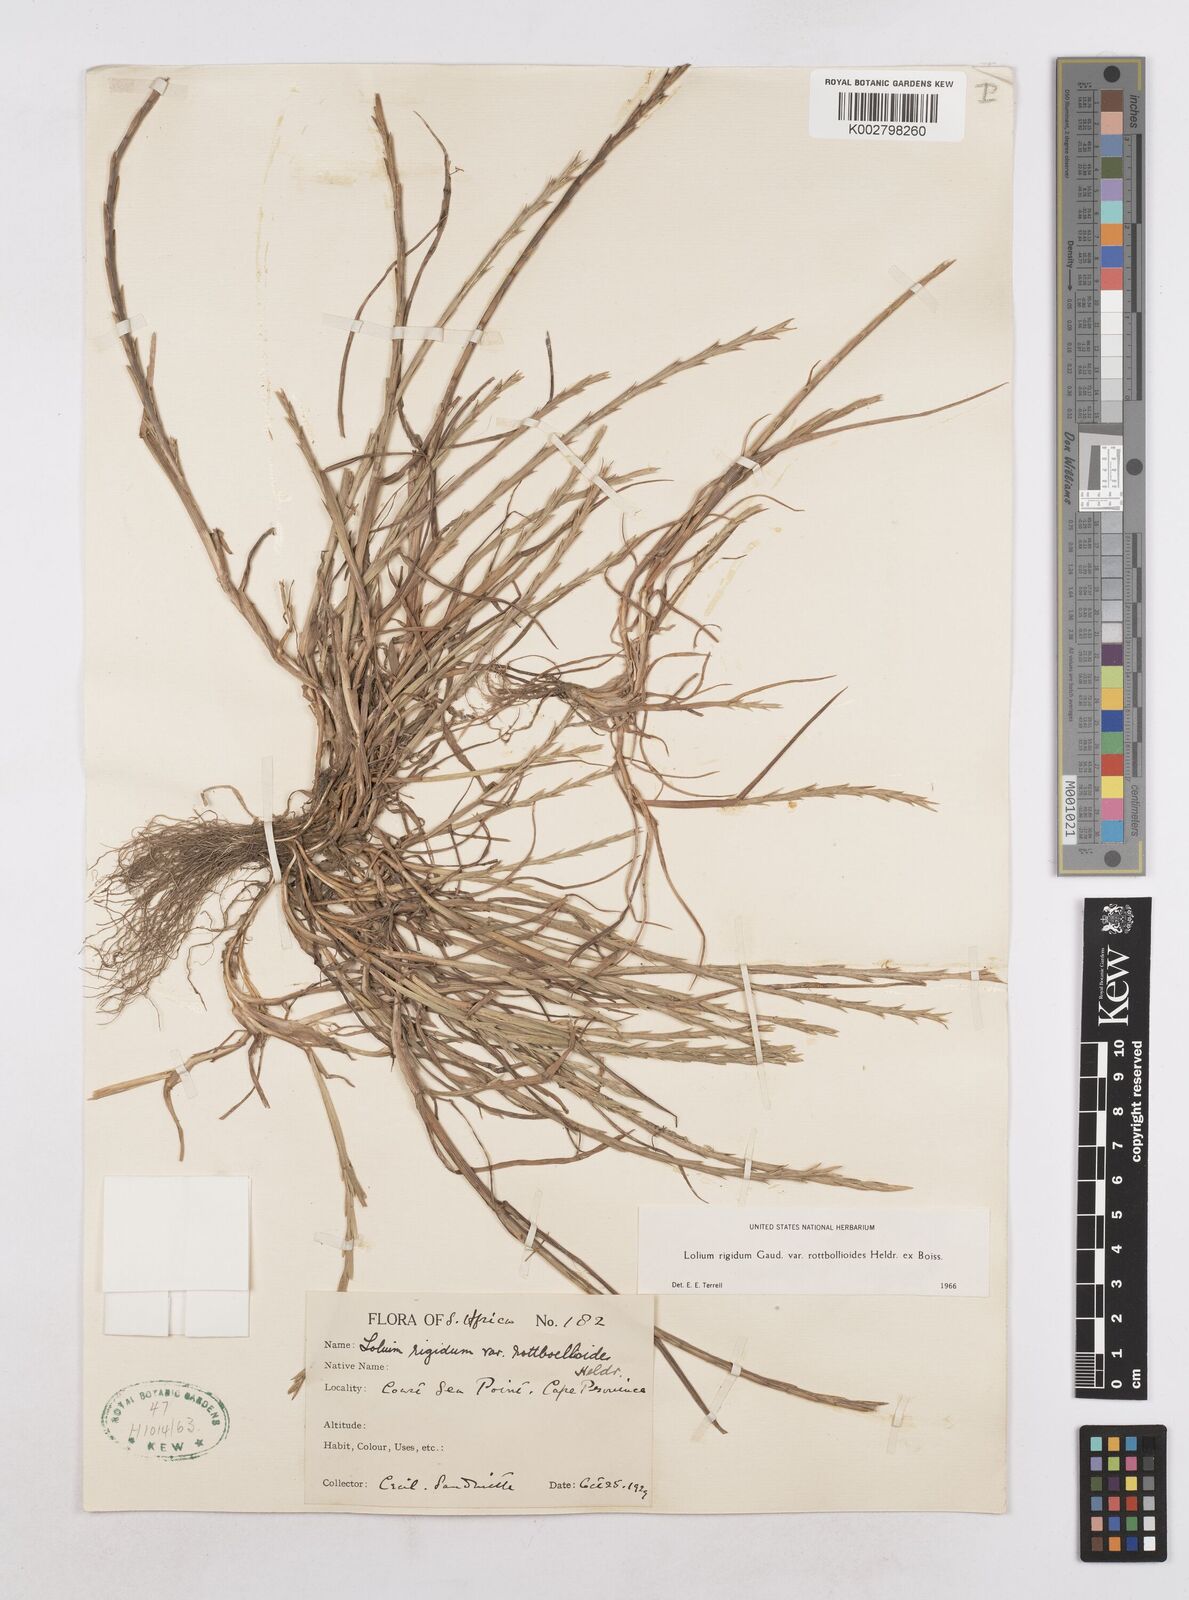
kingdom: Plantae
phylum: Tracheophyta
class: Liliopsida
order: Poales
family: Poaceae
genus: Lolium
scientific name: Lolium rigidum
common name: Wimmera ryegrass
